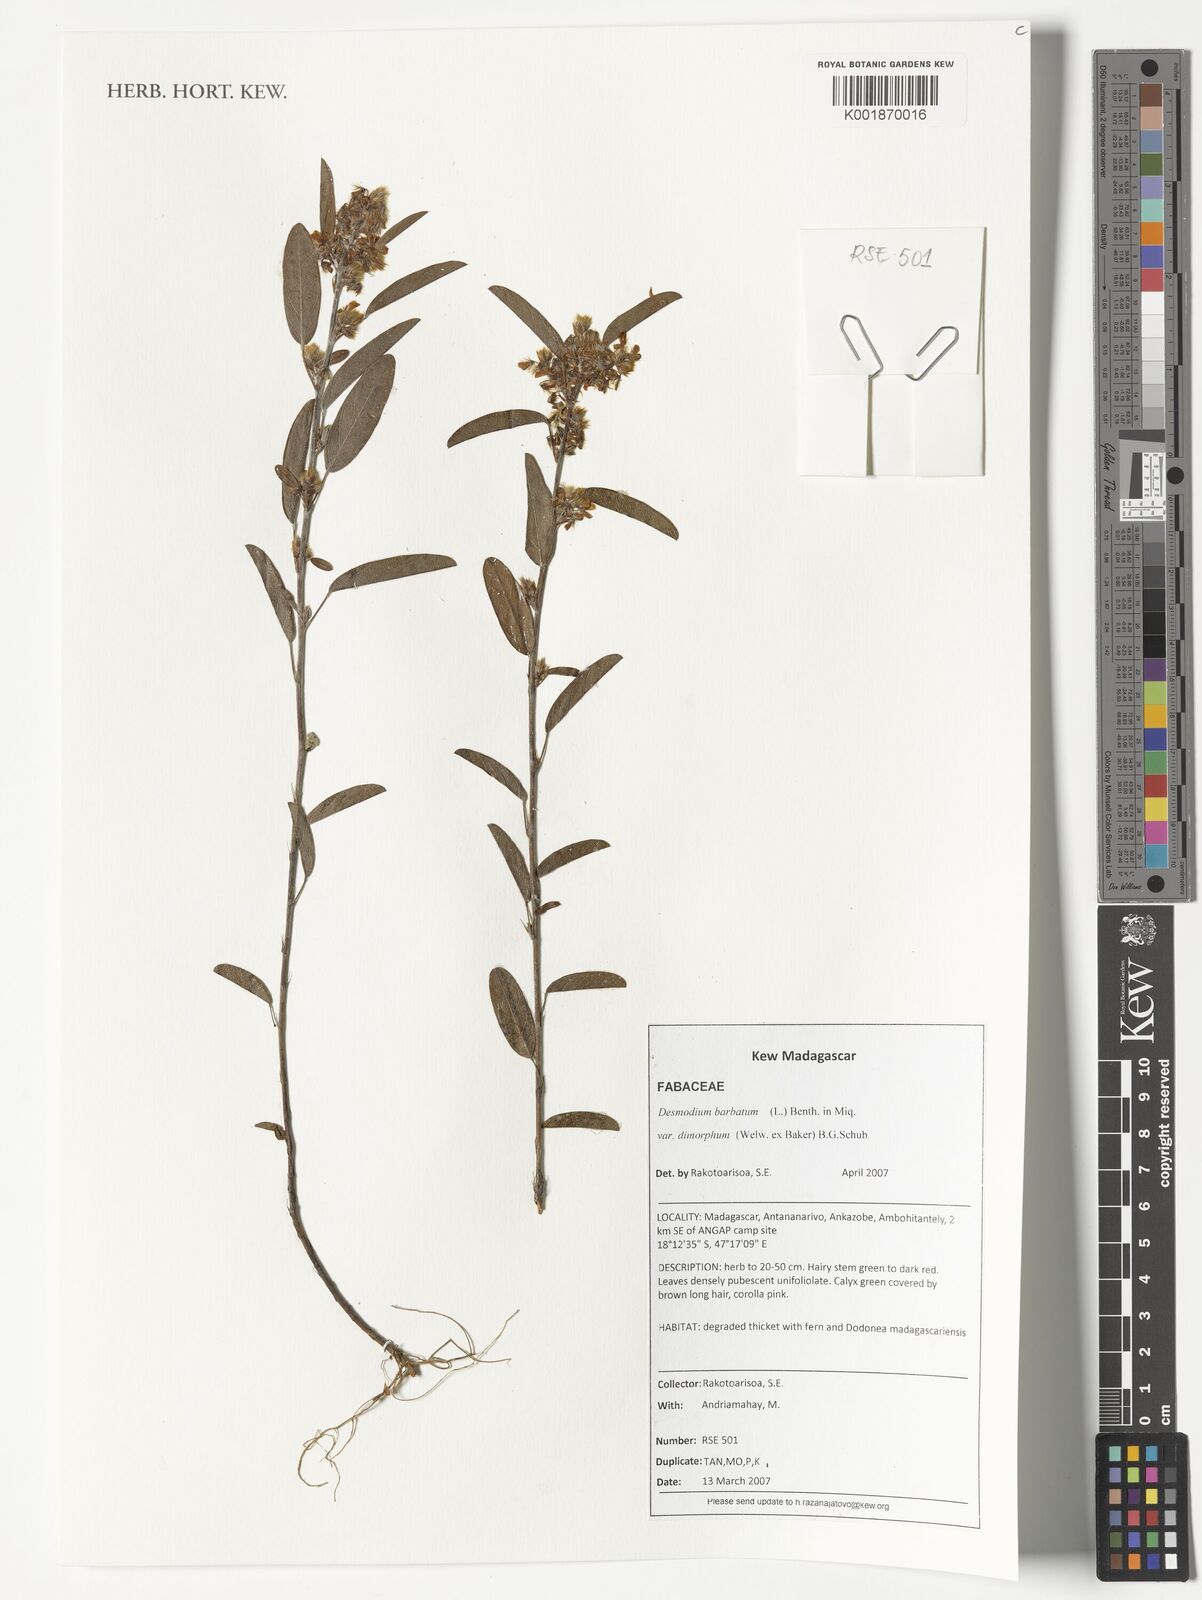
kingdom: Plantae
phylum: Tracheophyta
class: Magnoliopsida
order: Fabales
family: Fabaceae
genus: Grona
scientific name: Grona barbata
